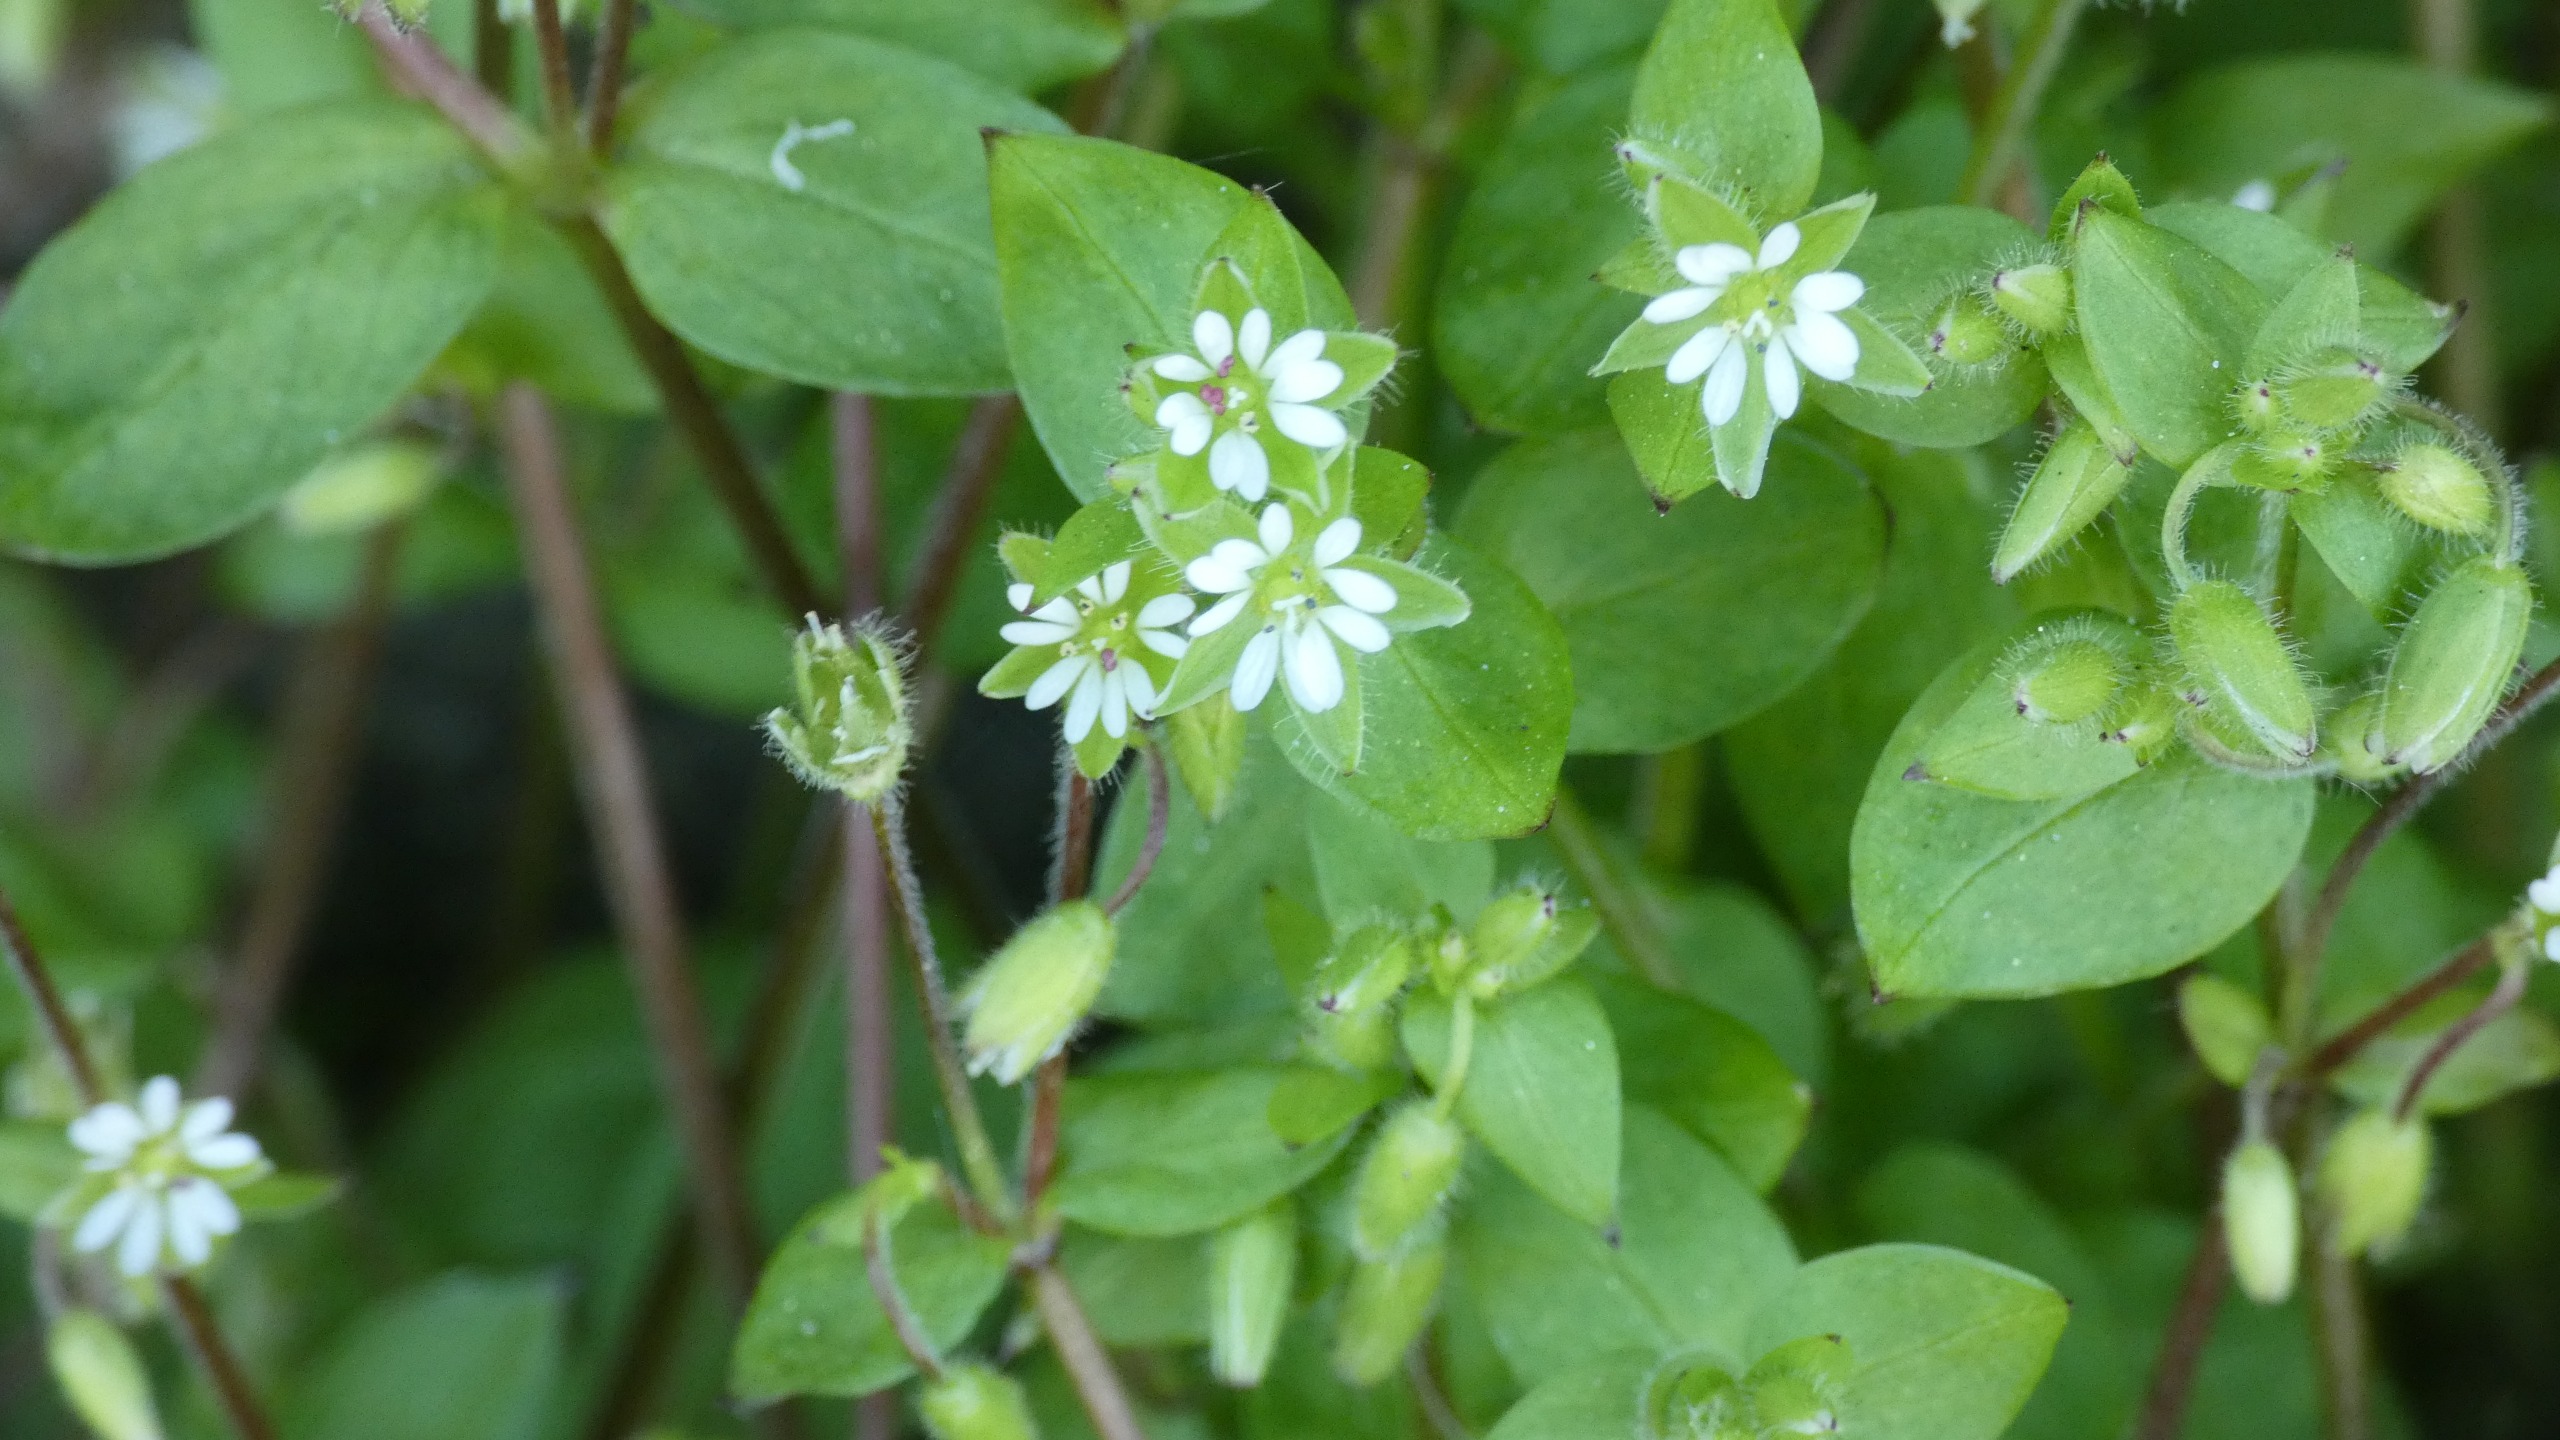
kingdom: Plantae
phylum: Tracheophyta
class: Magnoliopsida
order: Caryophyllales
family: Caryophyllaceae
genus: Stellaria
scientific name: Stellaria media
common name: Almindelig fuglegræs
